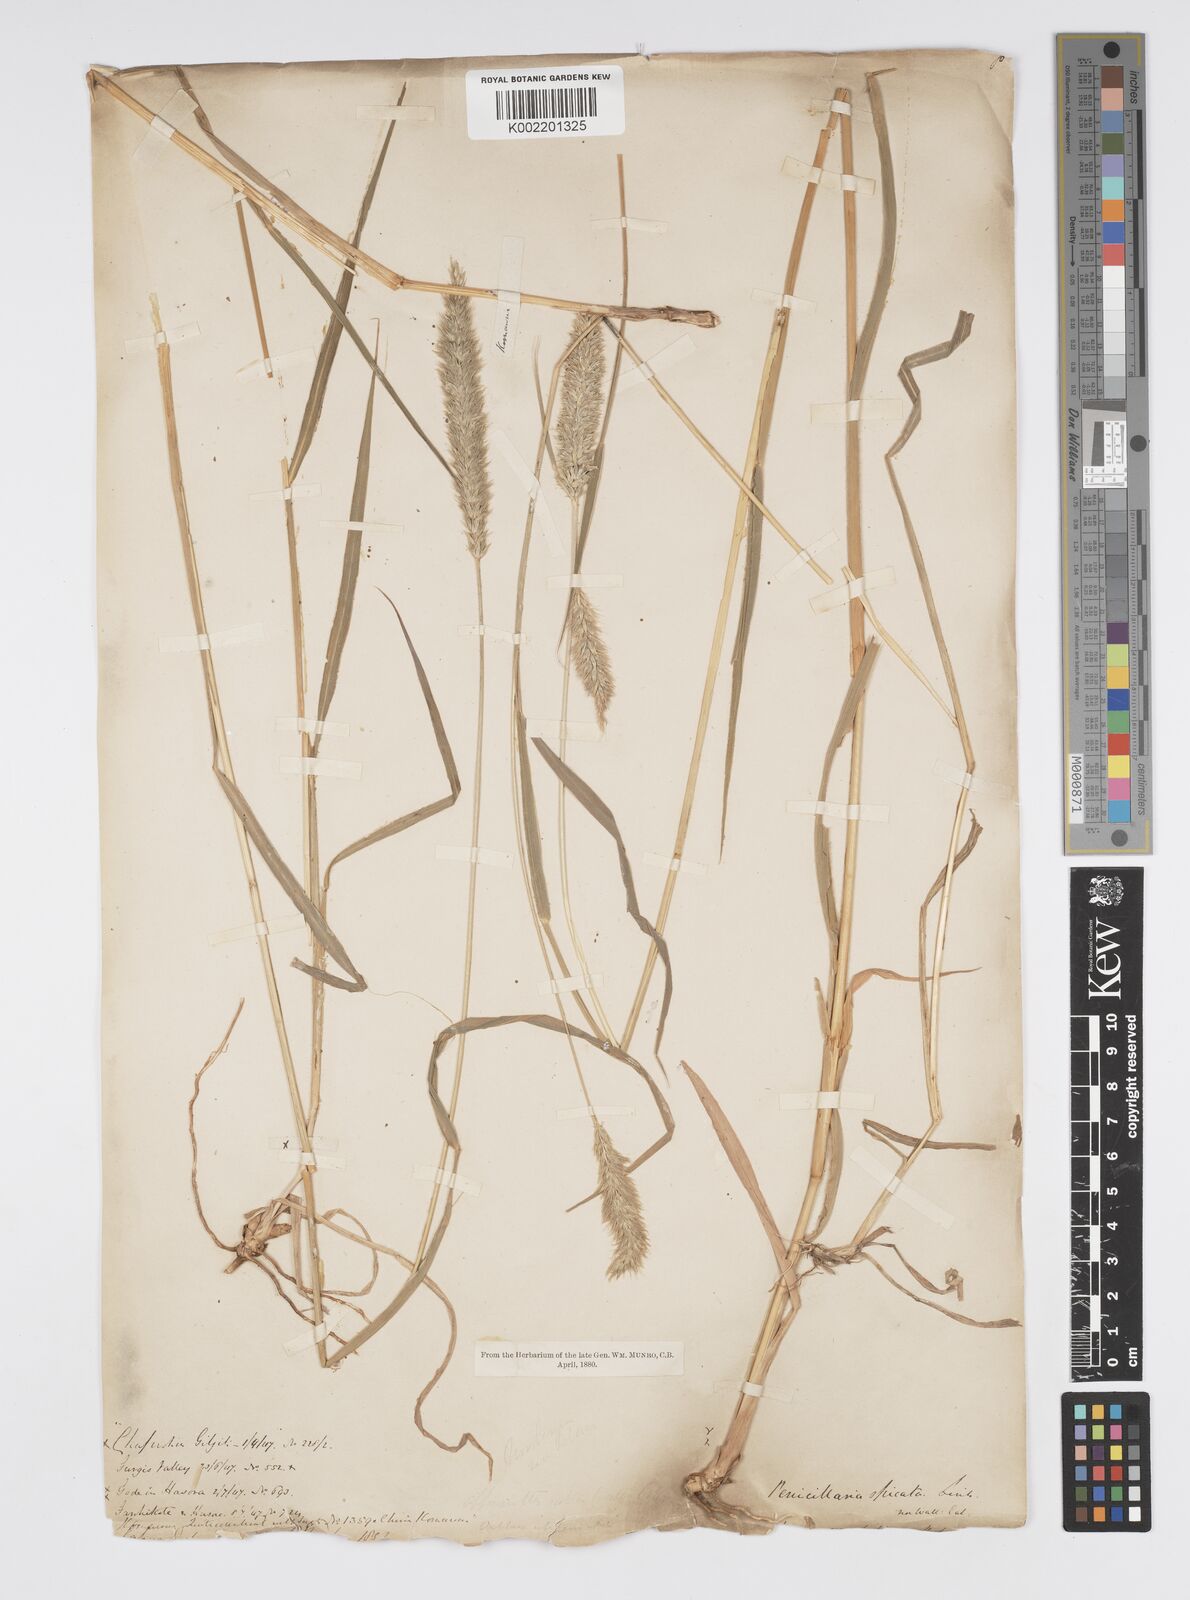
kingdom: Plantae
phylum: Tracheophyta
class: Liliopsida
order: Poales
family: Poaceae
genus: Cenchrus
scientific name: Cenchrus lanatus
